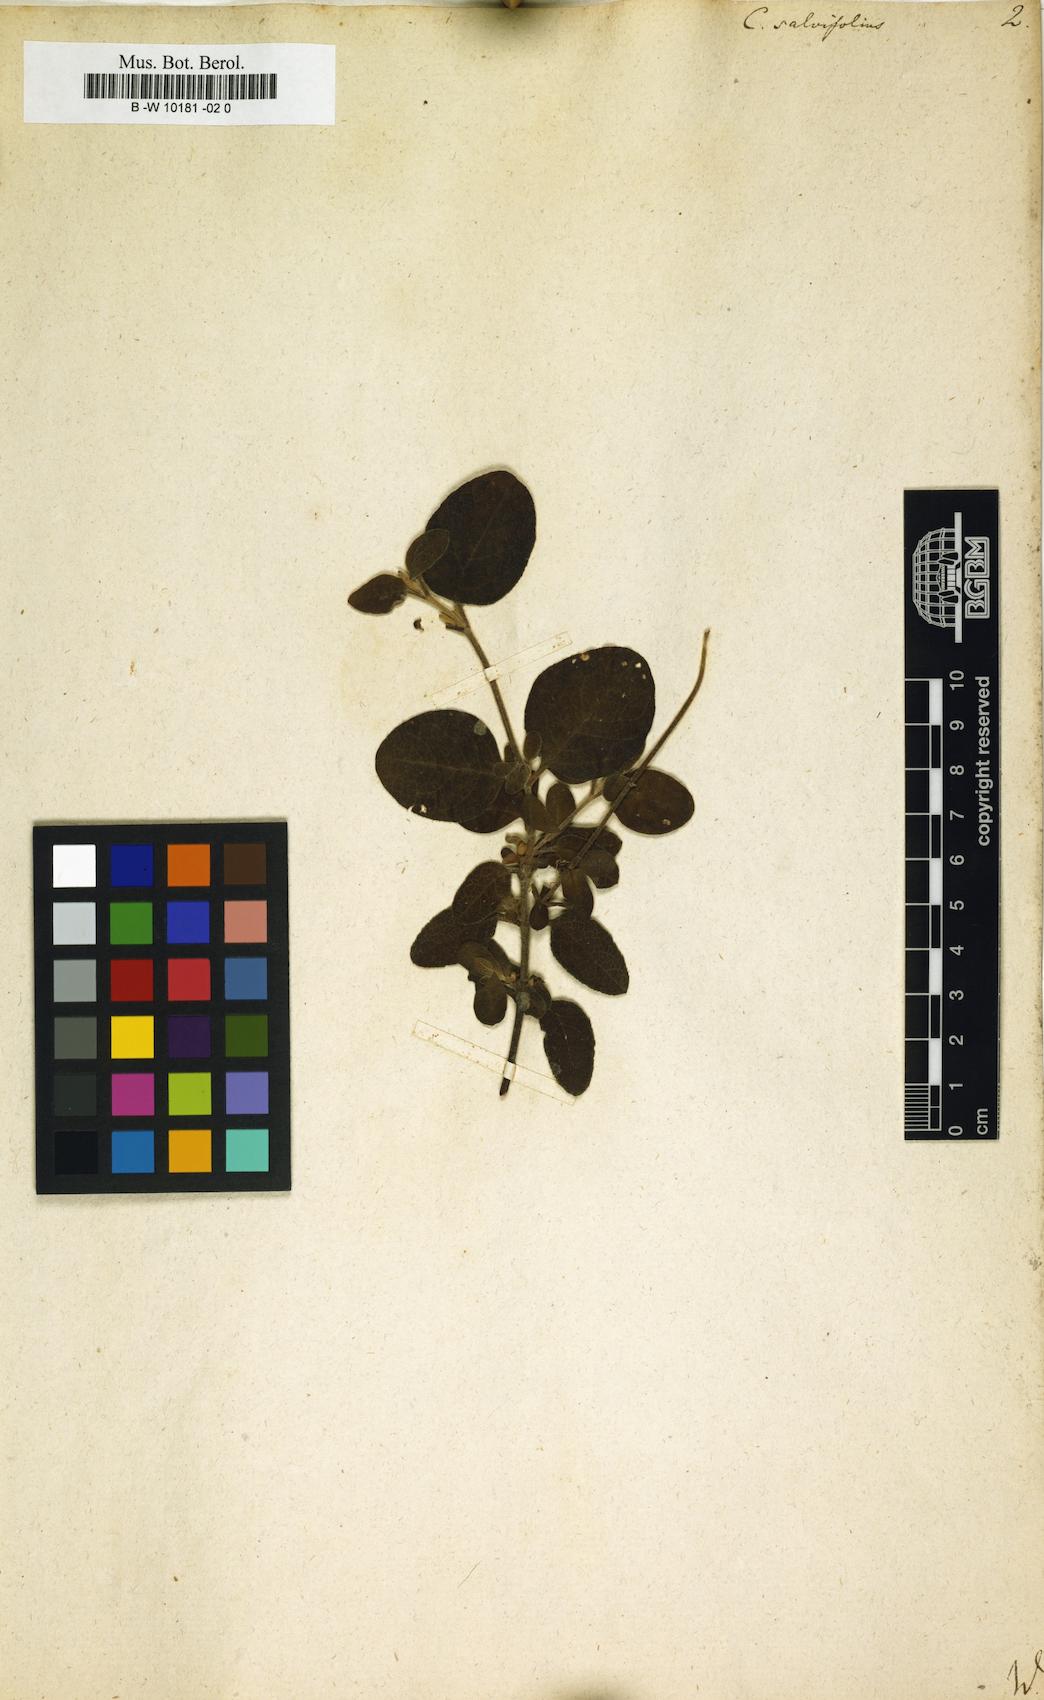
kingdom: Plantae
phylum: Tracheophyta
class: Magnoliopsida
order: Malvales
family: Cistaceae
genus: Cistus
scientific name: Cistus salviifolius
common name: Salvia cistus
